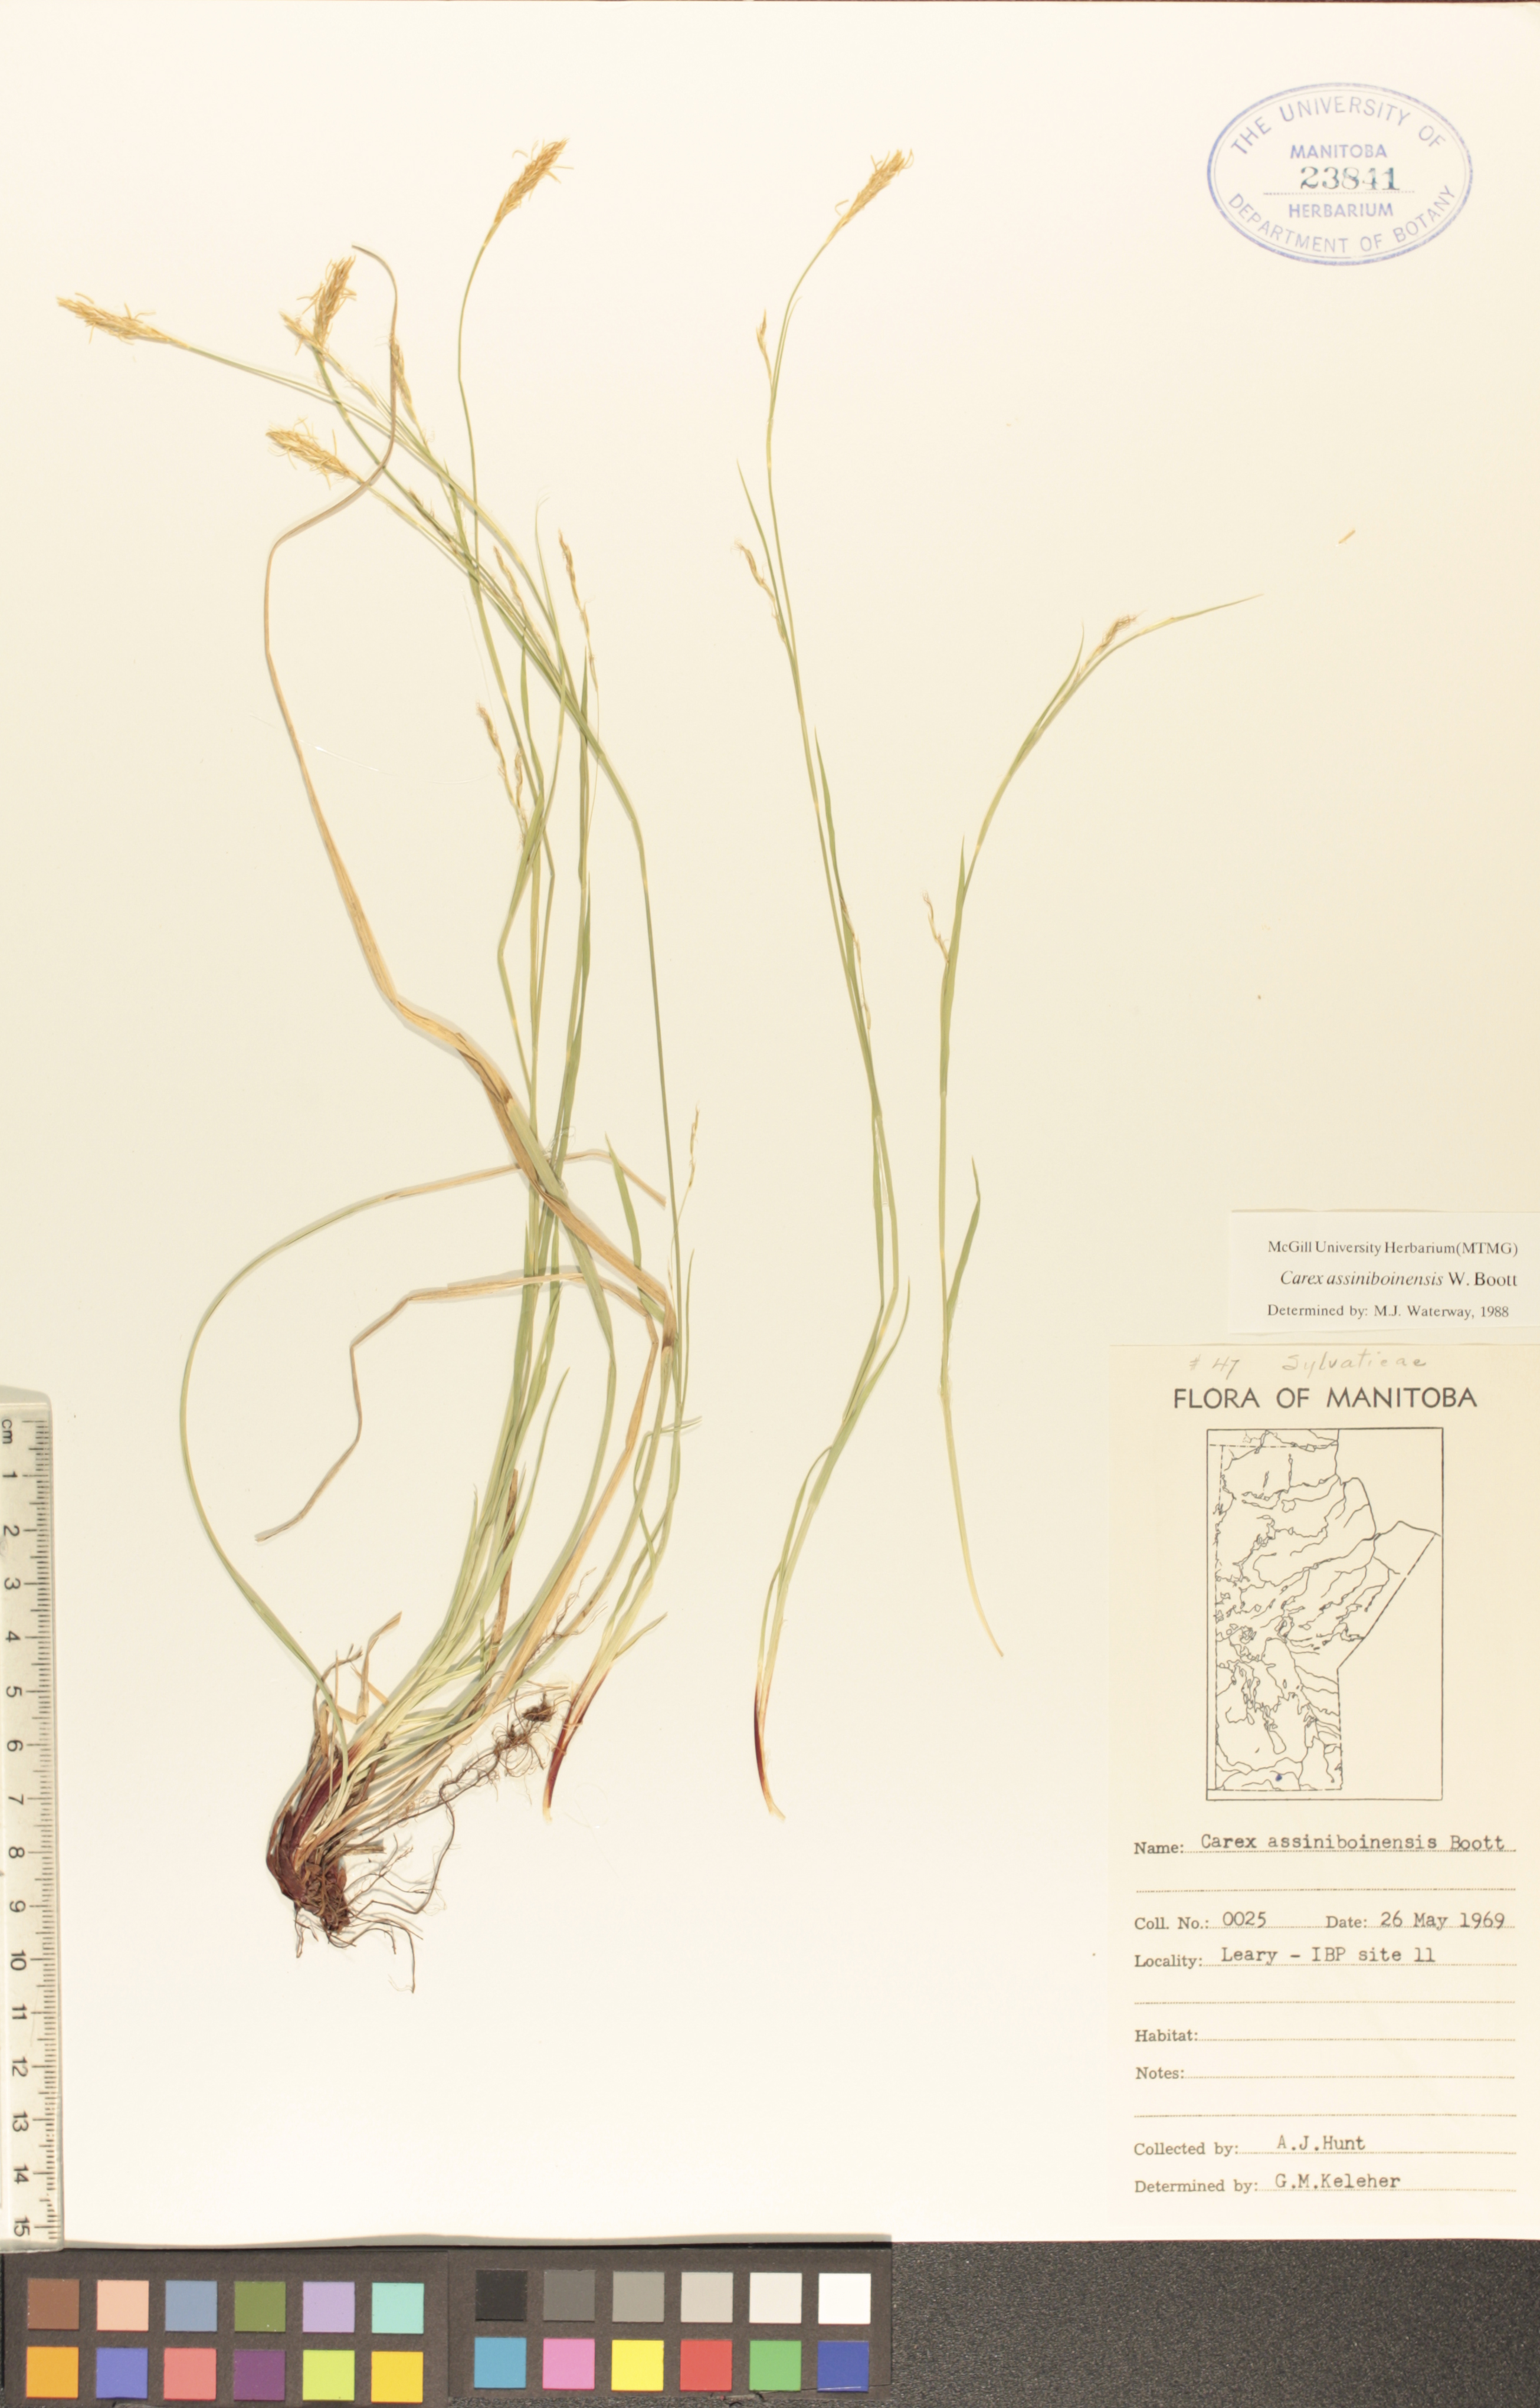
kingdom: Plantae
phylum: Tracheophyta
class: Liliopsida
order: Poales
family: Cyperaceae
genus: Carex
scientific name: Carex assiniboinensis
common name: Assiniboia sedge
